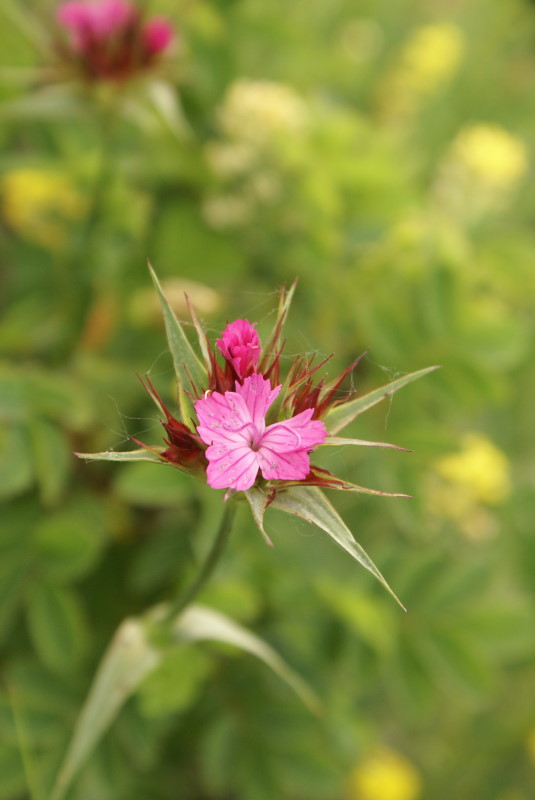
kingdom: Plantae
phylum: Tracheophyta
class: Magnoliopsida
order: Caryophyllales
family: Caryophyllaceae
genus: Dianthus
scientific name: Dianthus capitatus
